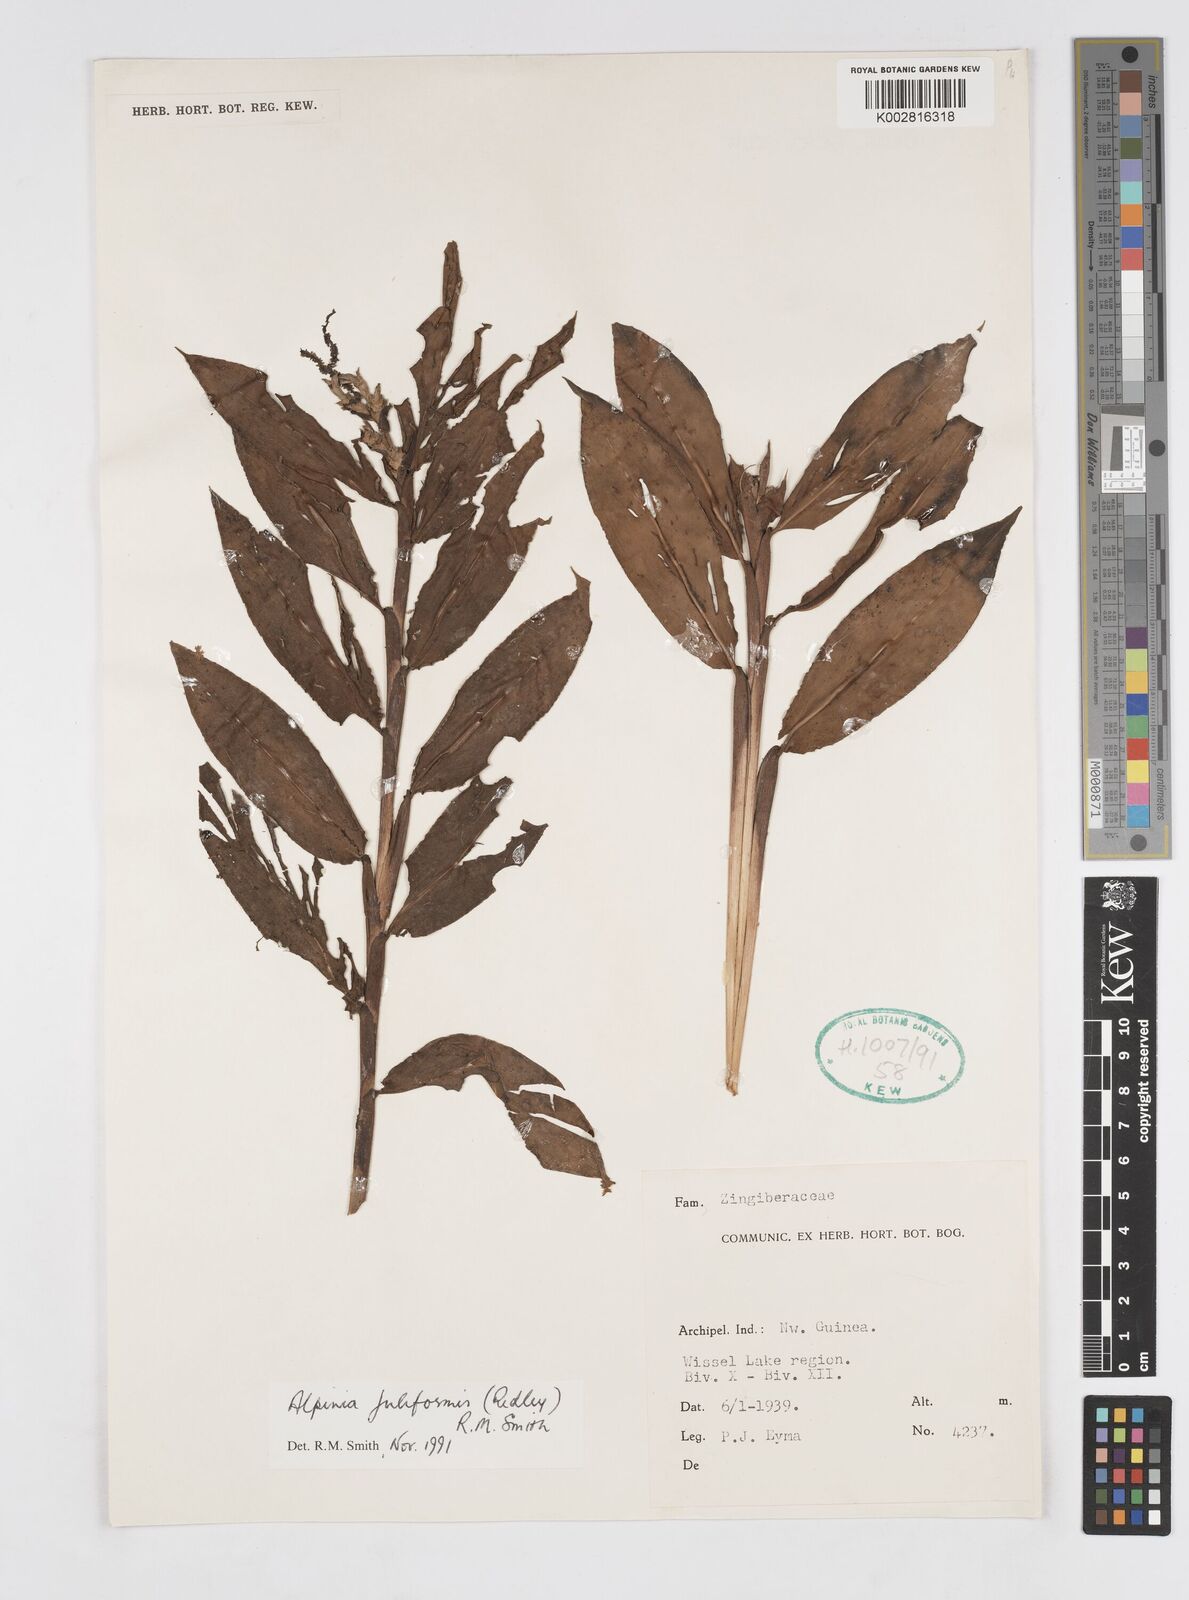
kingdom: Plantae
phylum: Tracheophyta
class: Liliopsida
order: Zingiberales
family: Zingiberaceae
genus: Alpinia
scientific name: Alpinia juliformis
